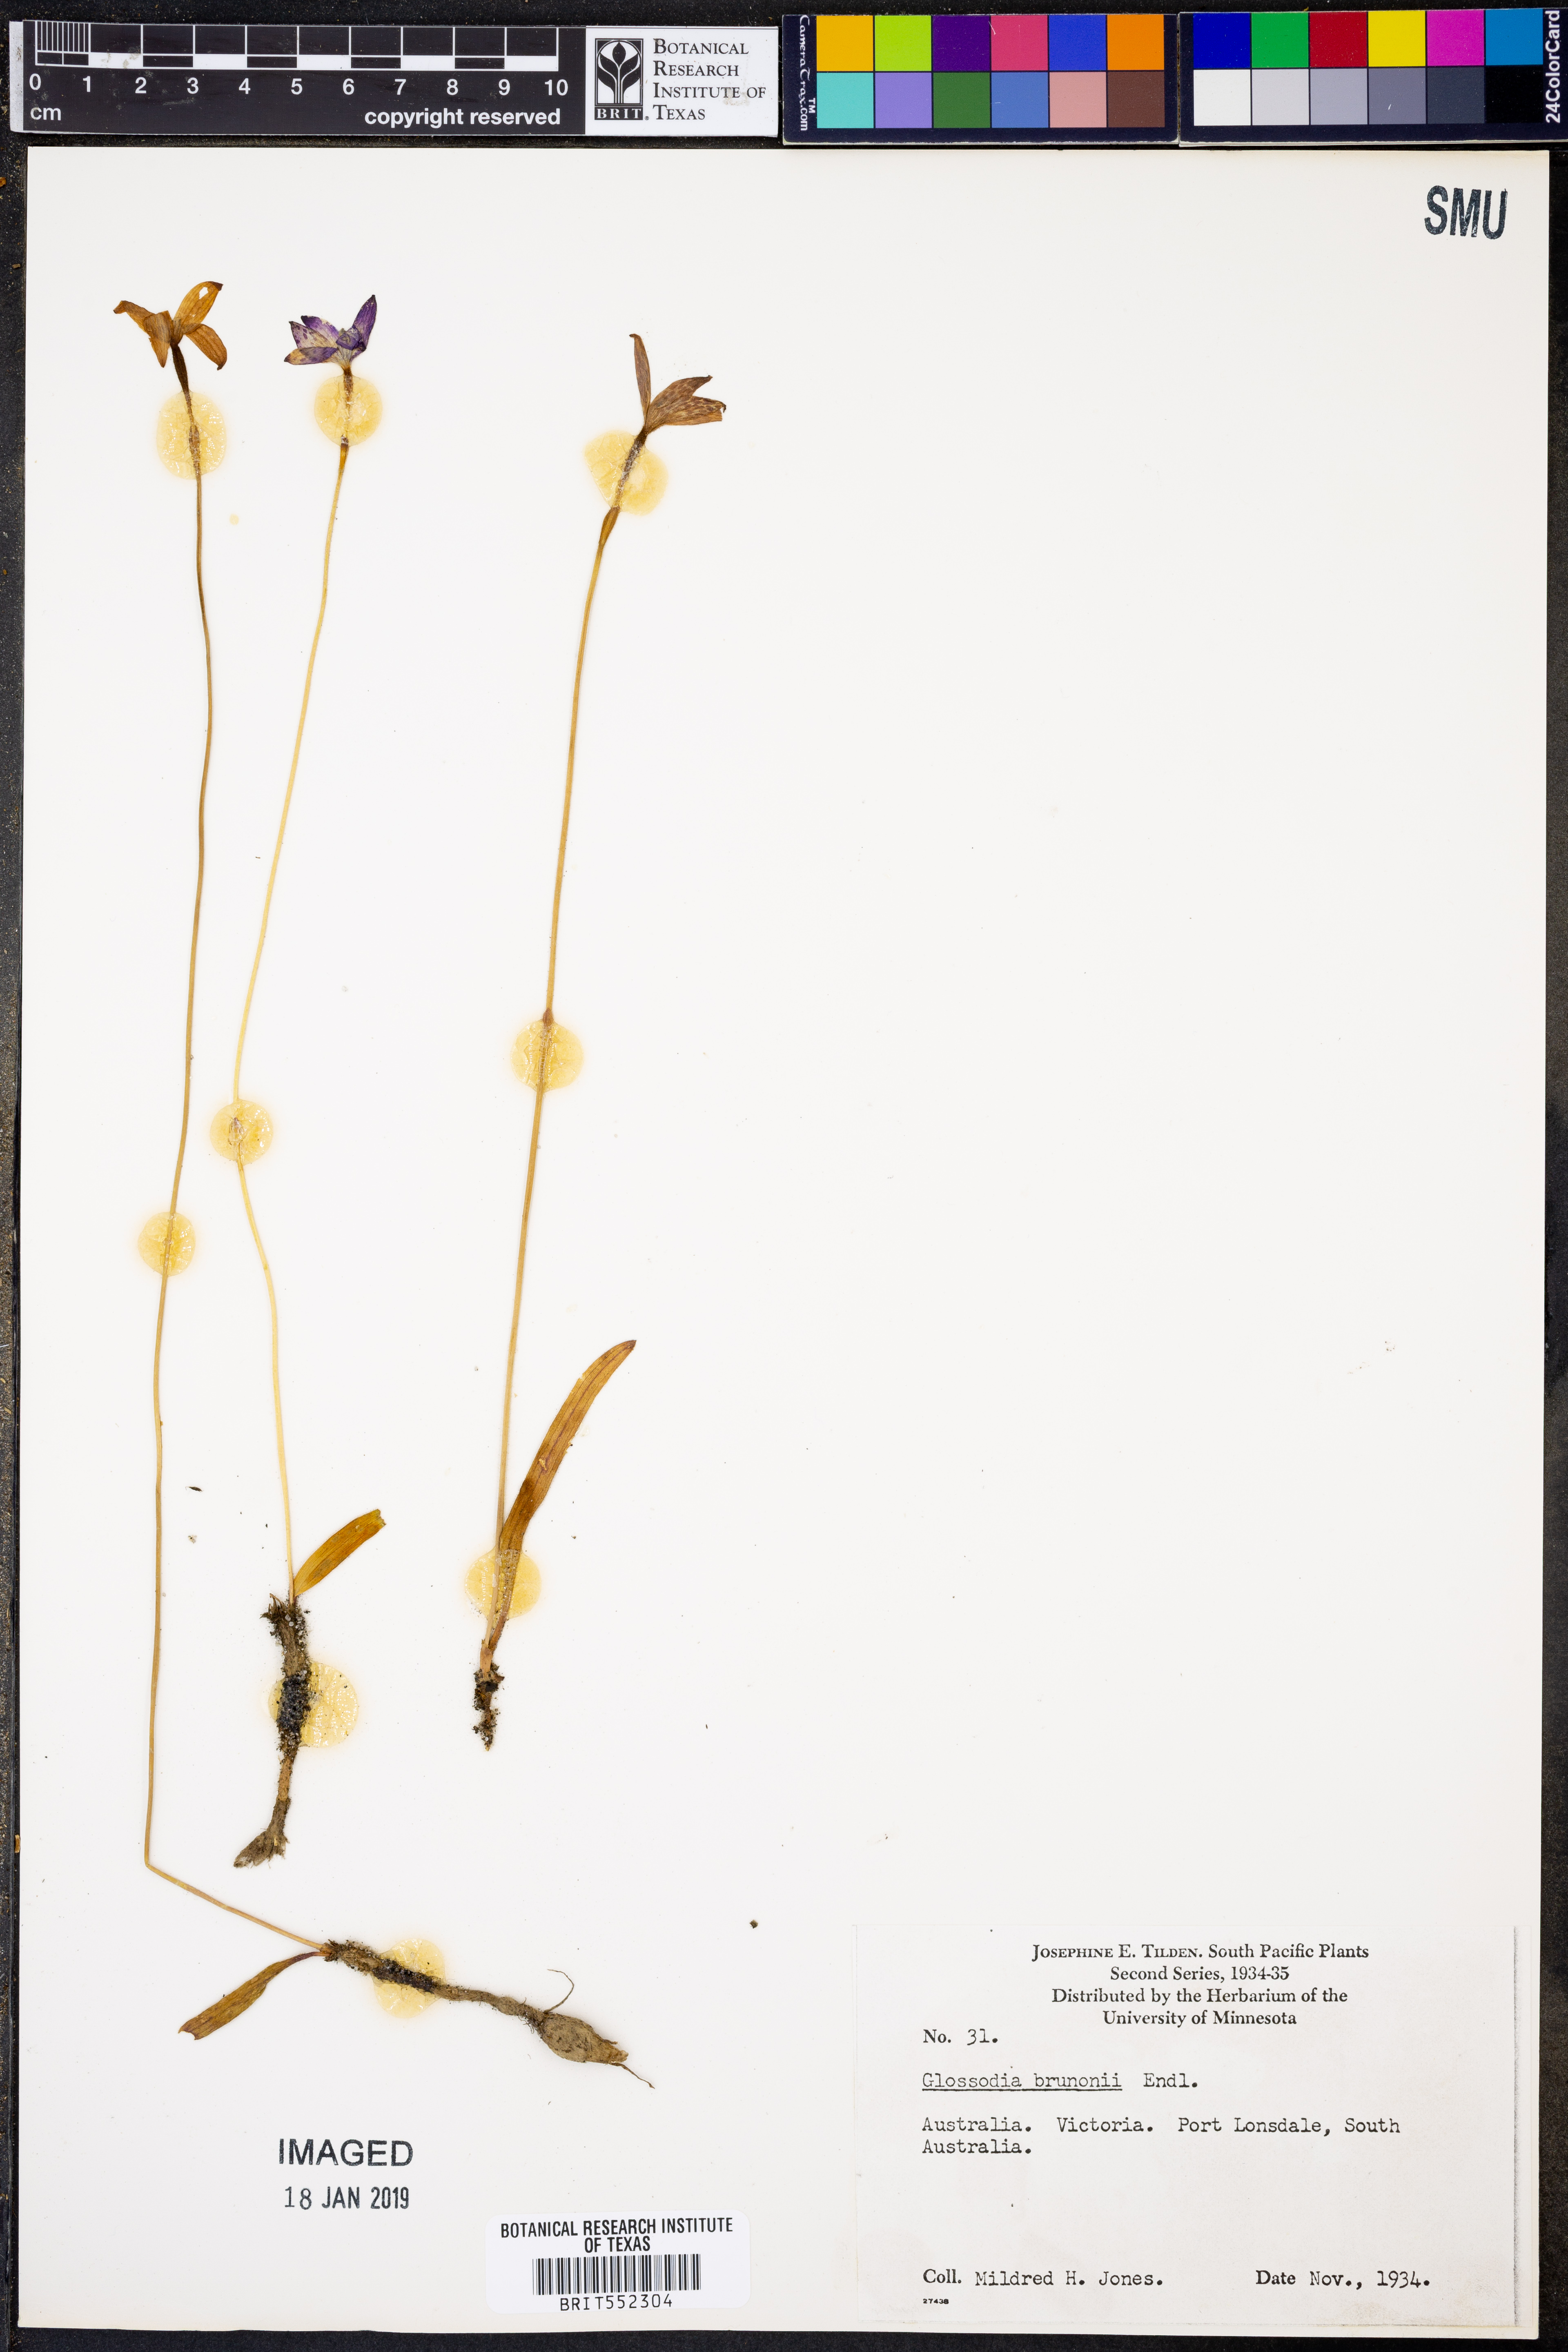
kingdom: Plantae
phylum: Tracheophyta
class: Liliopsida
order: Asparagales
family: Orchidaceae
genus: Caladenia
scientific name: Caladenia brunonis
